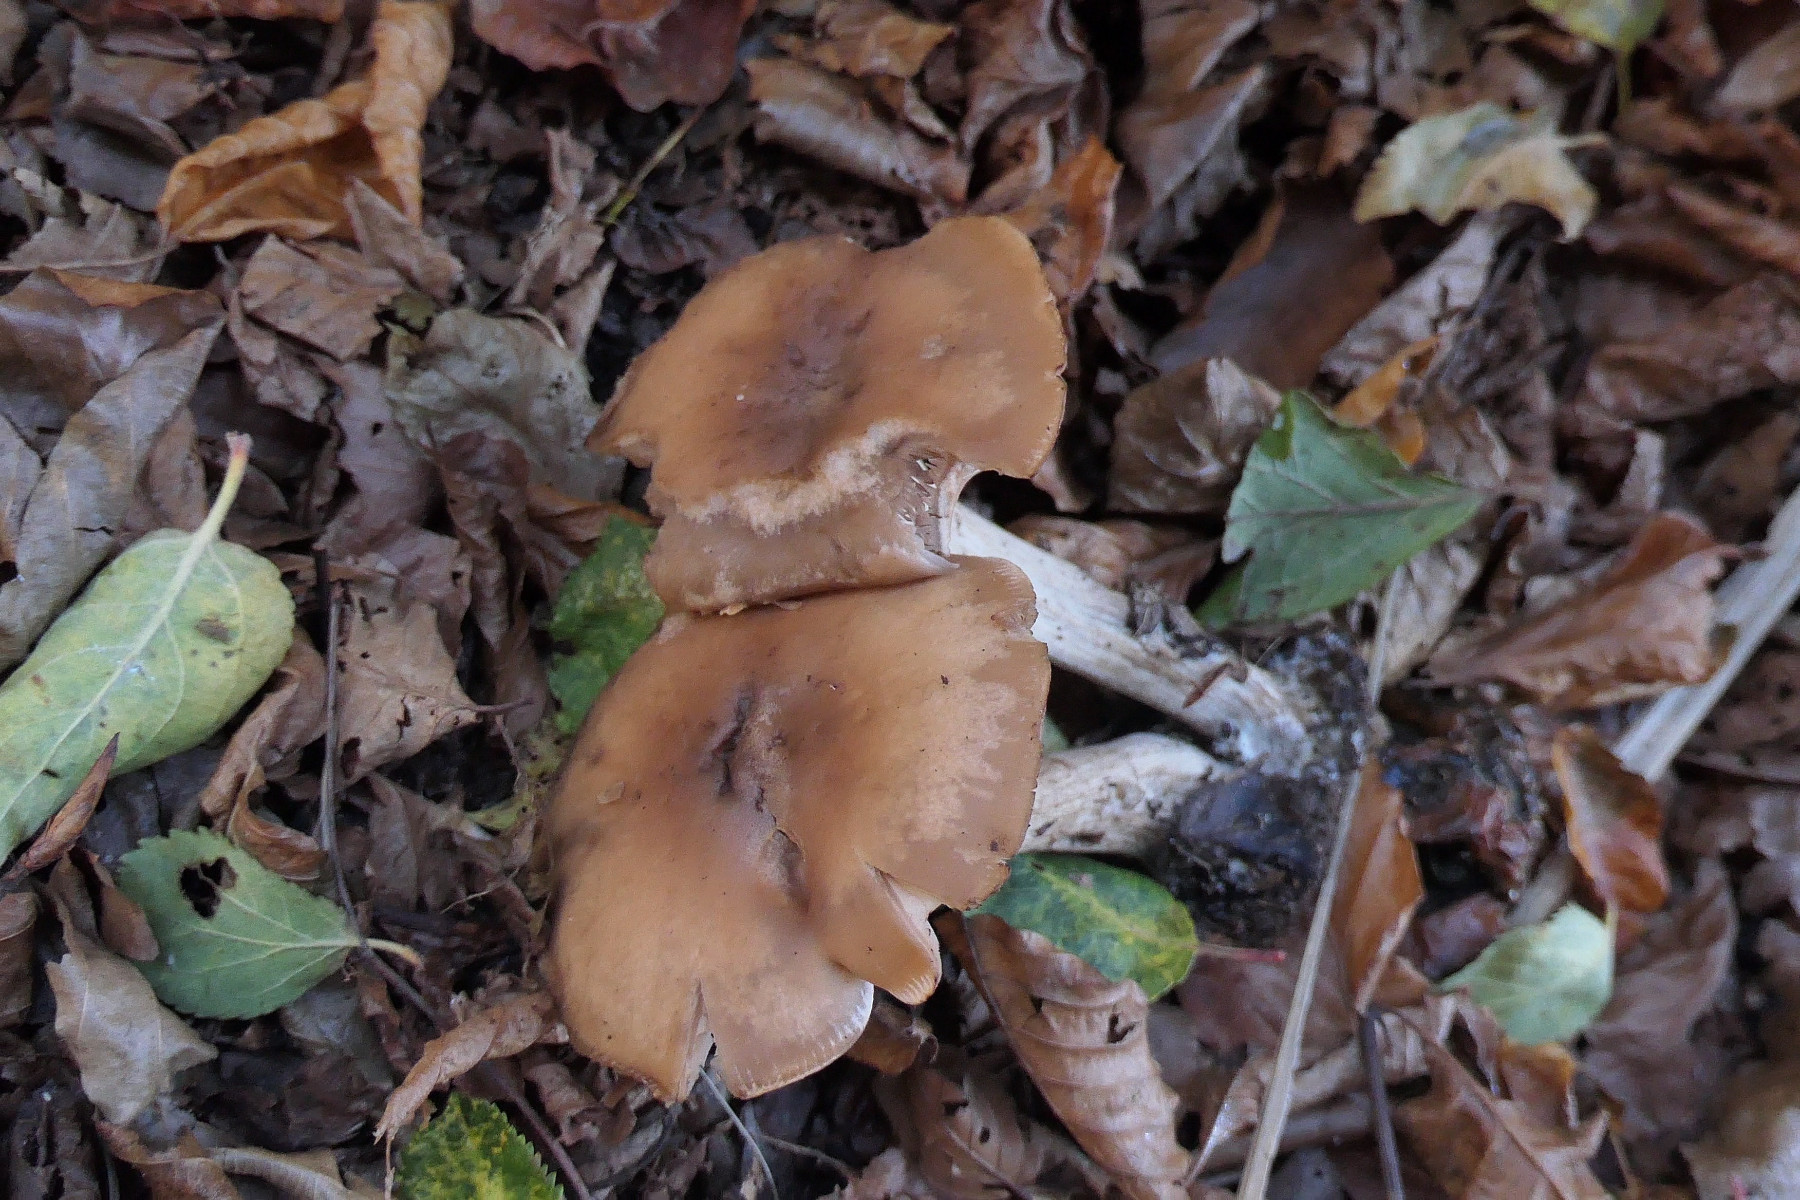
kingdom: Fungi
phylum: Basidiomycota
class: Agaricomycetes
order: Agaricales
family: Tricholomataceae
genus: Lepista
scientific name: Lepista irina
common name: violduftende hekseringshat
